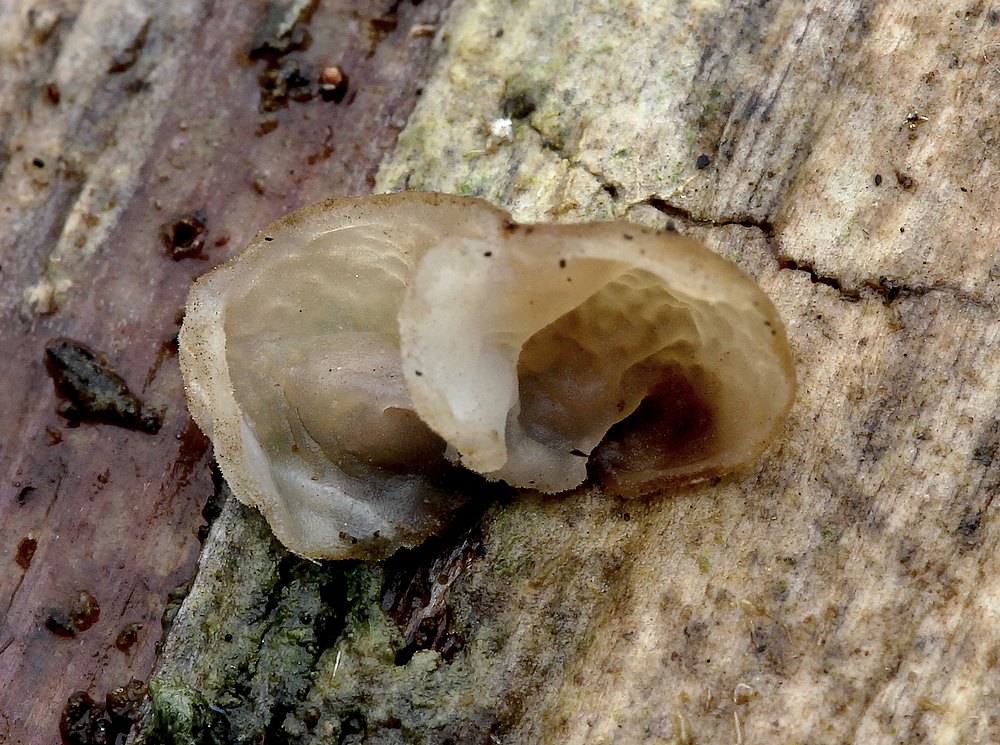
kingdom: Fungi
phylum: Basidiomycota
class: Agaricomycetes
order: Agaricales
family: Physalacriaceae
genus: Gloiocephala
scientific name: Gloiocephala menieri
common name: dunhammer-spatelhat
